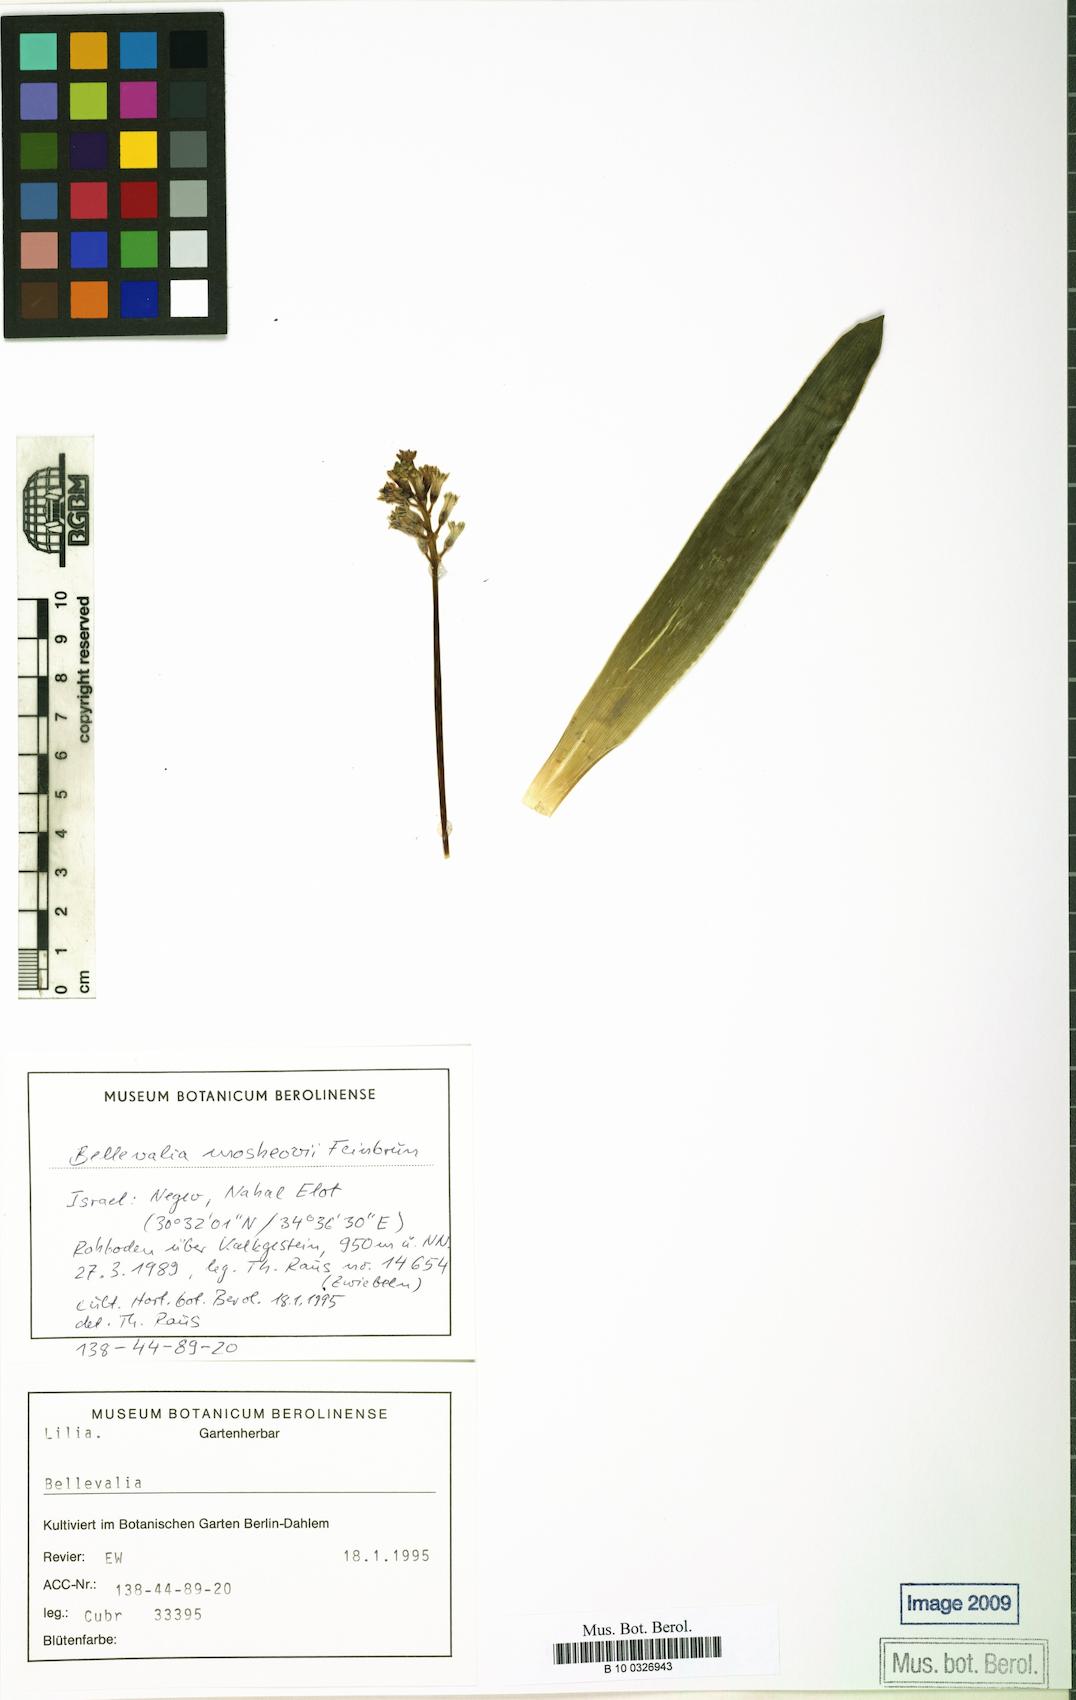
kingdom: Plantae
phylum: Tracheophyta
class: Liliopsida
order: Asparagales
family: Asparagaceae
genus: Bellevalia
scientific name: Bellevalia mosheovii
